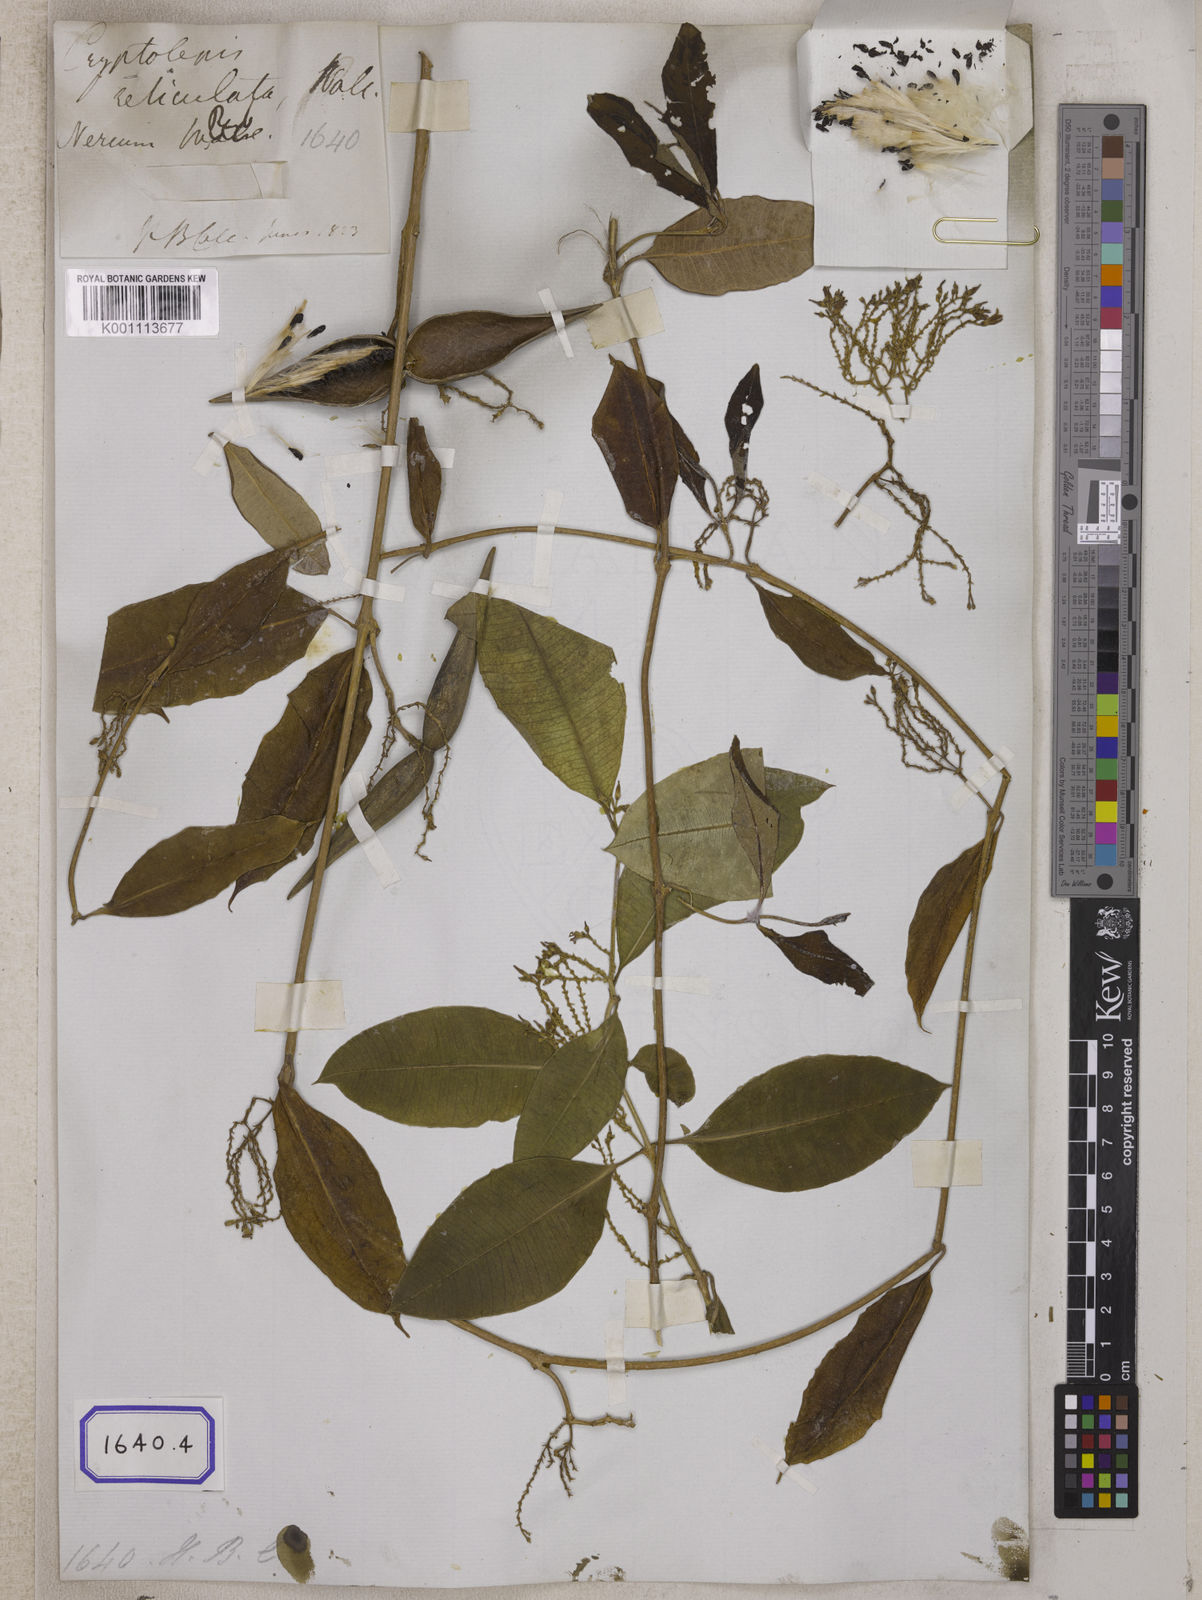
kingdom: Plantae
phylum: Tracheophyta
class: Magnoliopsida
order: Gentianales
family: Apocynaceae
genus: Cryptolepis
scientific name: Cryptolepis
